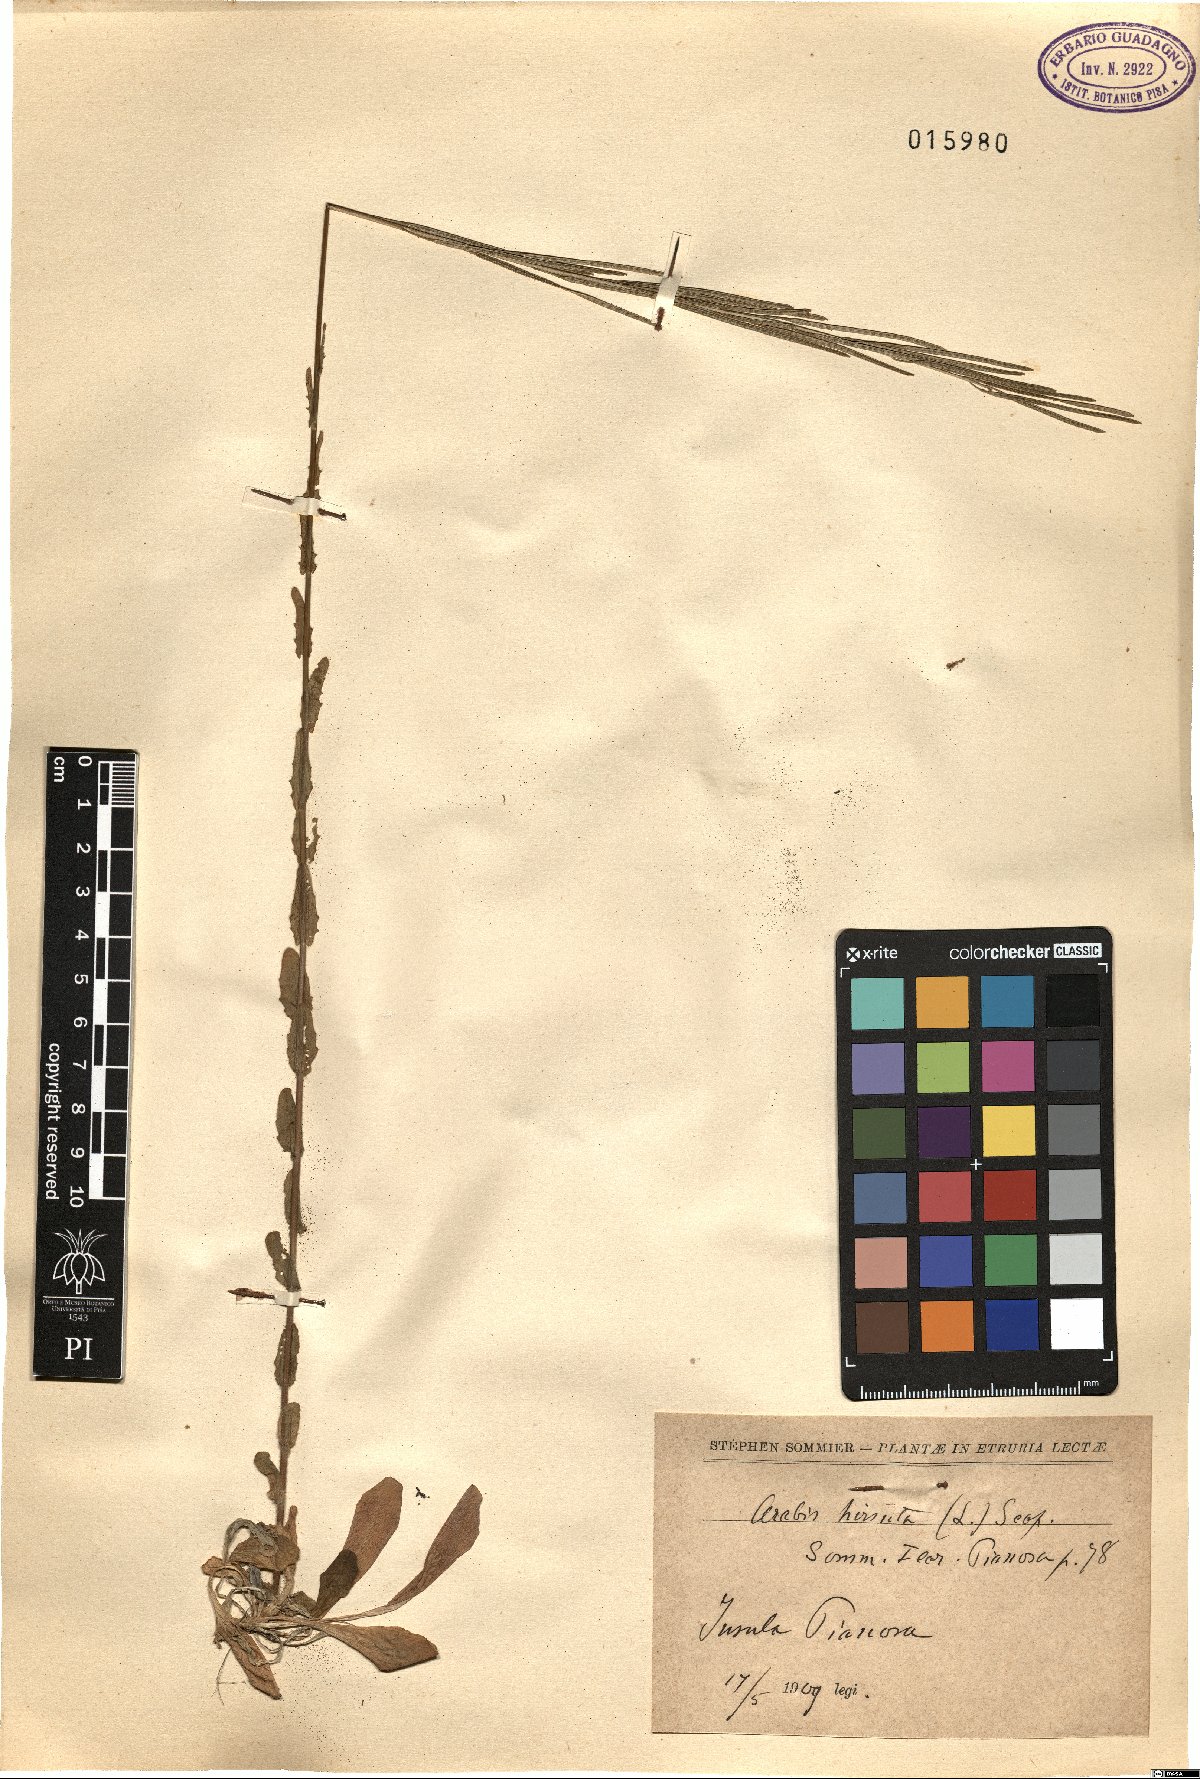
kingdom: Plantae
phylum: Tracheophyta
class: Magnoliopsida
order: Brassicales
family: Brassicaceae
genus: Arabis
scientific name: Arabis hirsuta
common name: Hairy rock-cress
